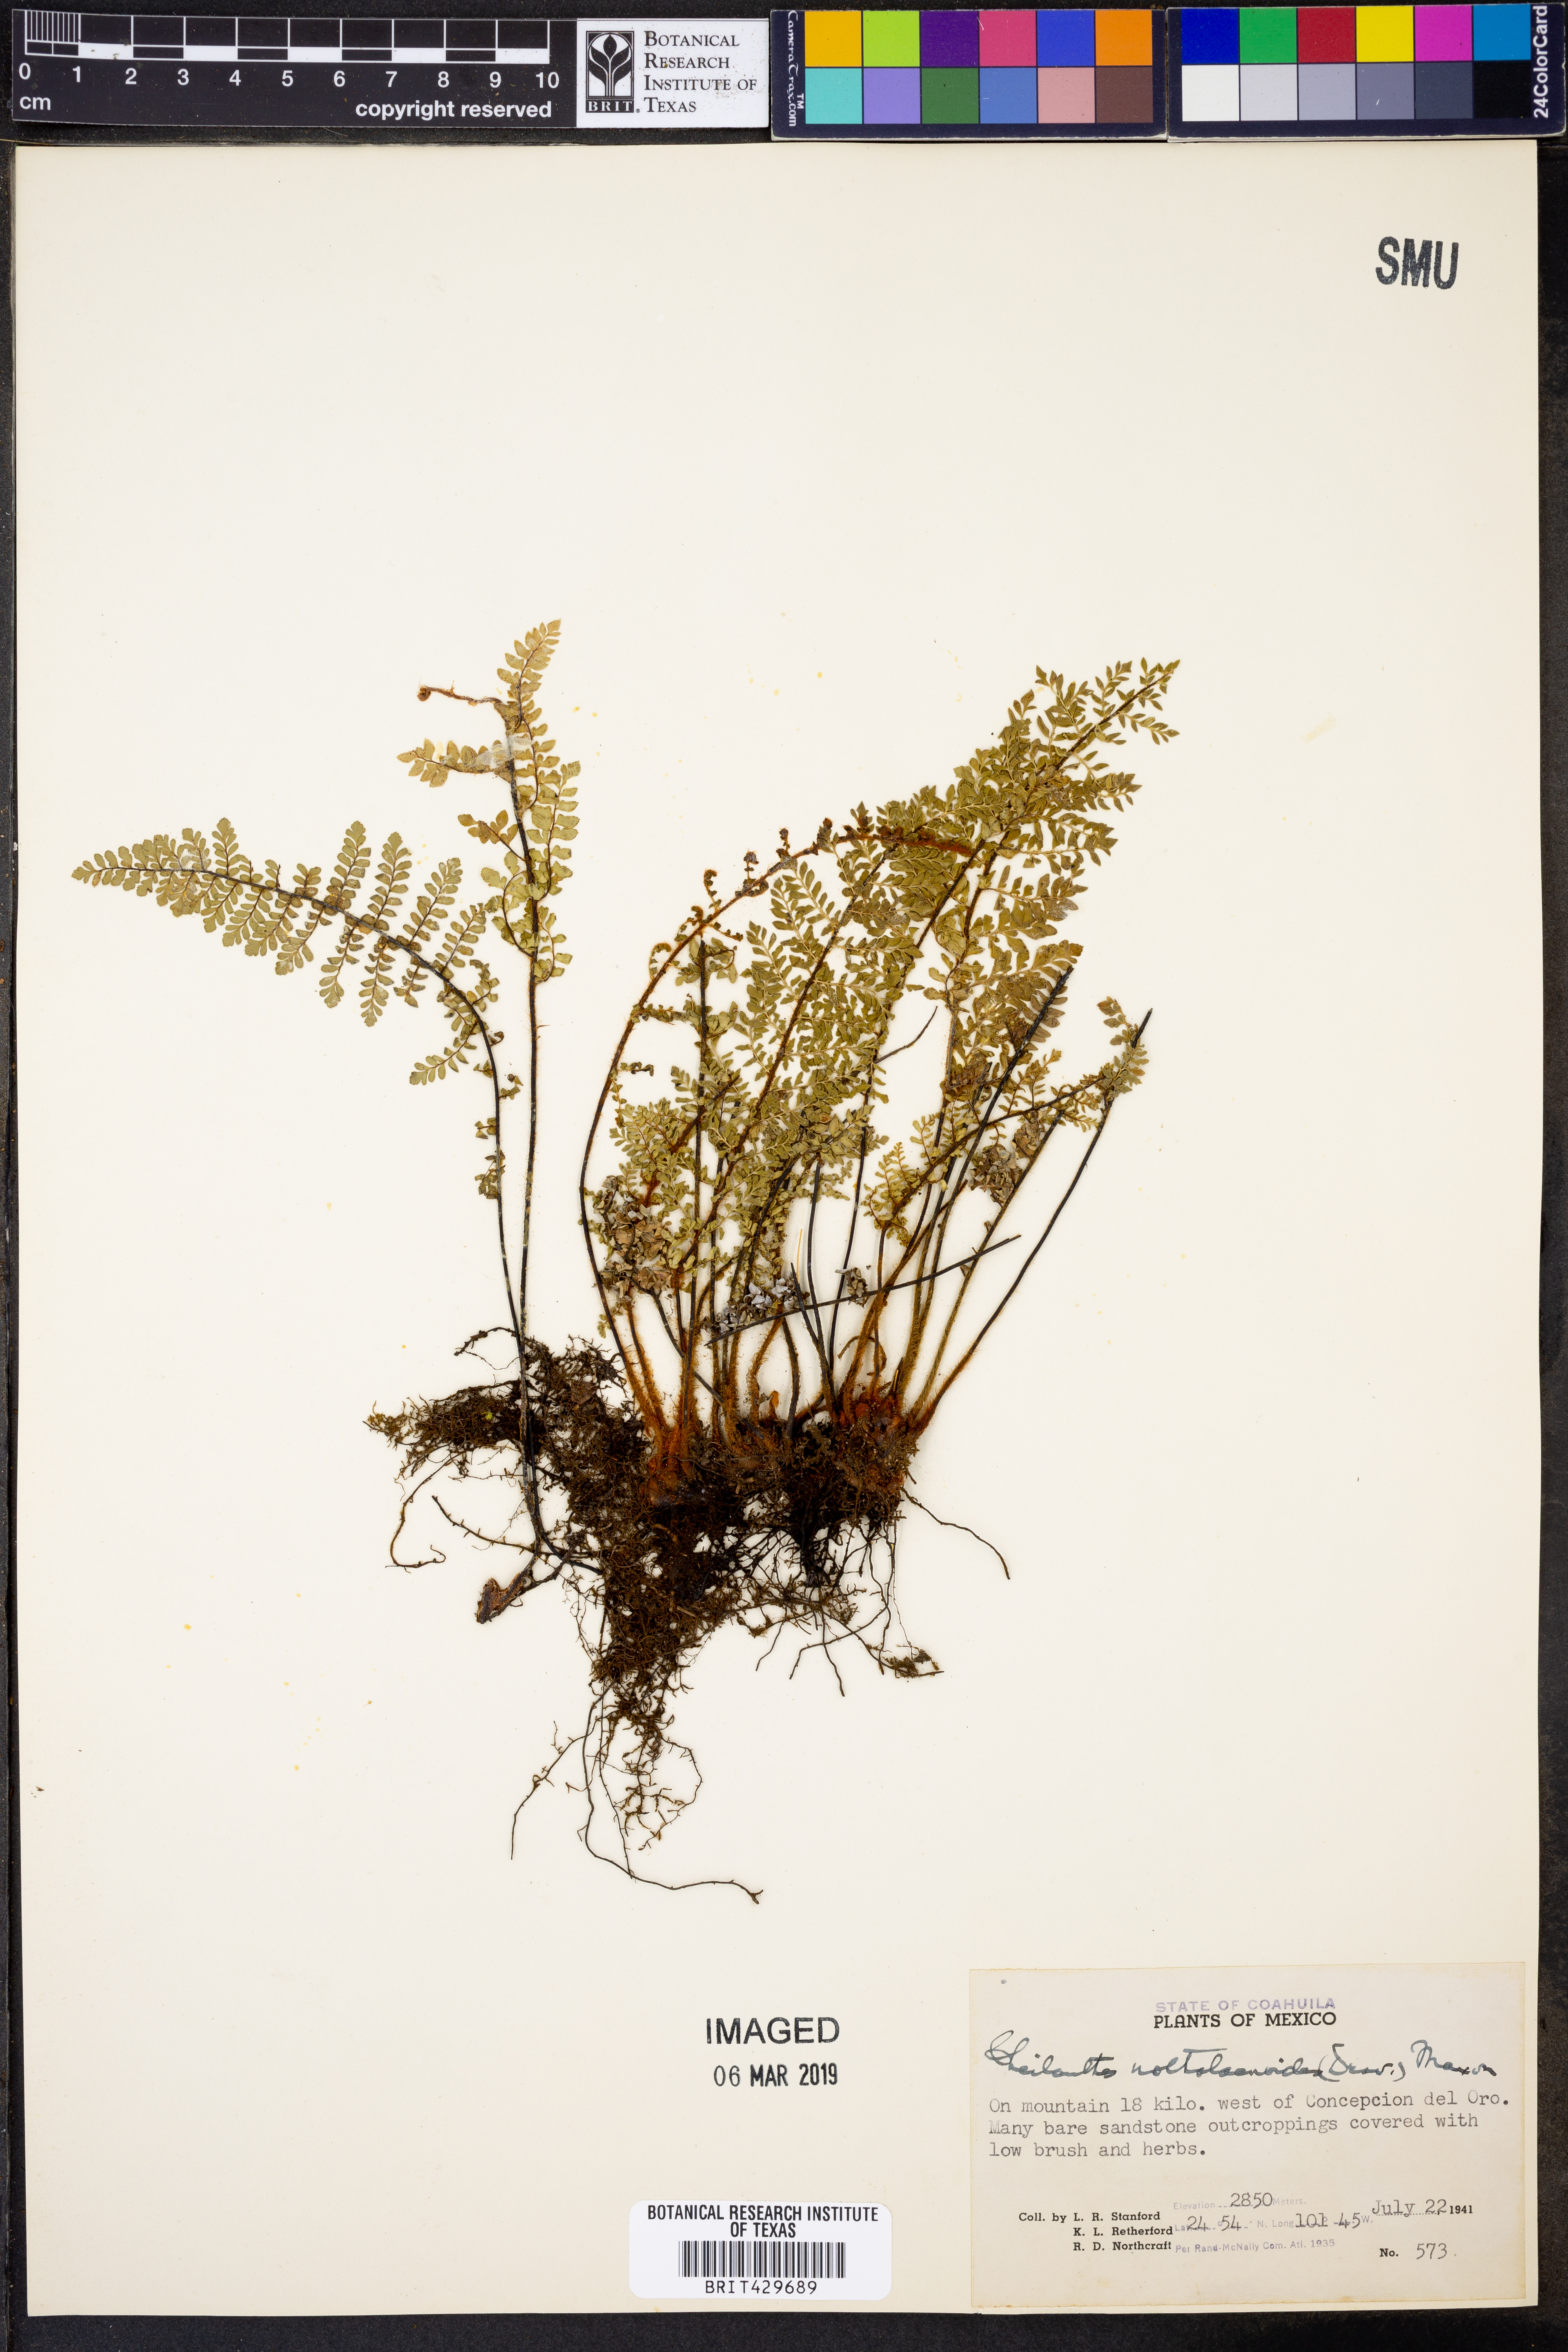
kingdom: Plantae
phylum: Tracheophyta
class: Polypodiopsida
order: Polypodiales
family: Pteridaceae
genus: Myriopteris
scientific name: Myriopteris notholaenoides
